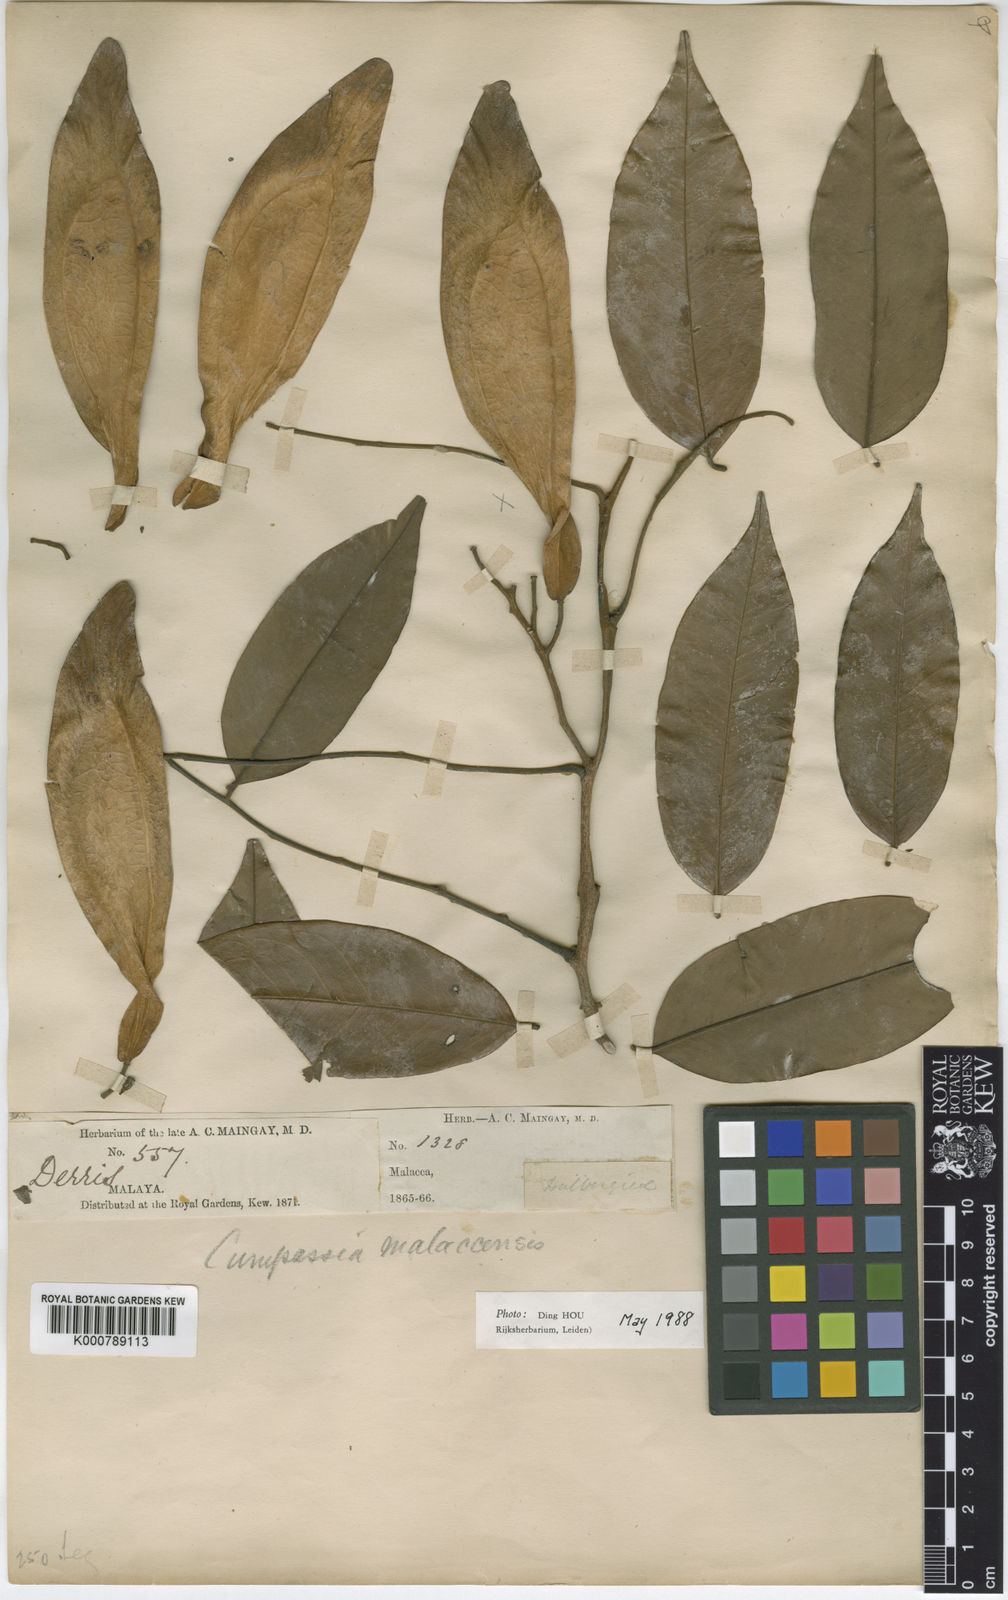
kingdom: Plantae
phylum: Tracheophyta
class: Magnoliopsida
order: Fabales
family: Fabaceae
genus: Koompassia
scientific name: Koompassia malaccensis
